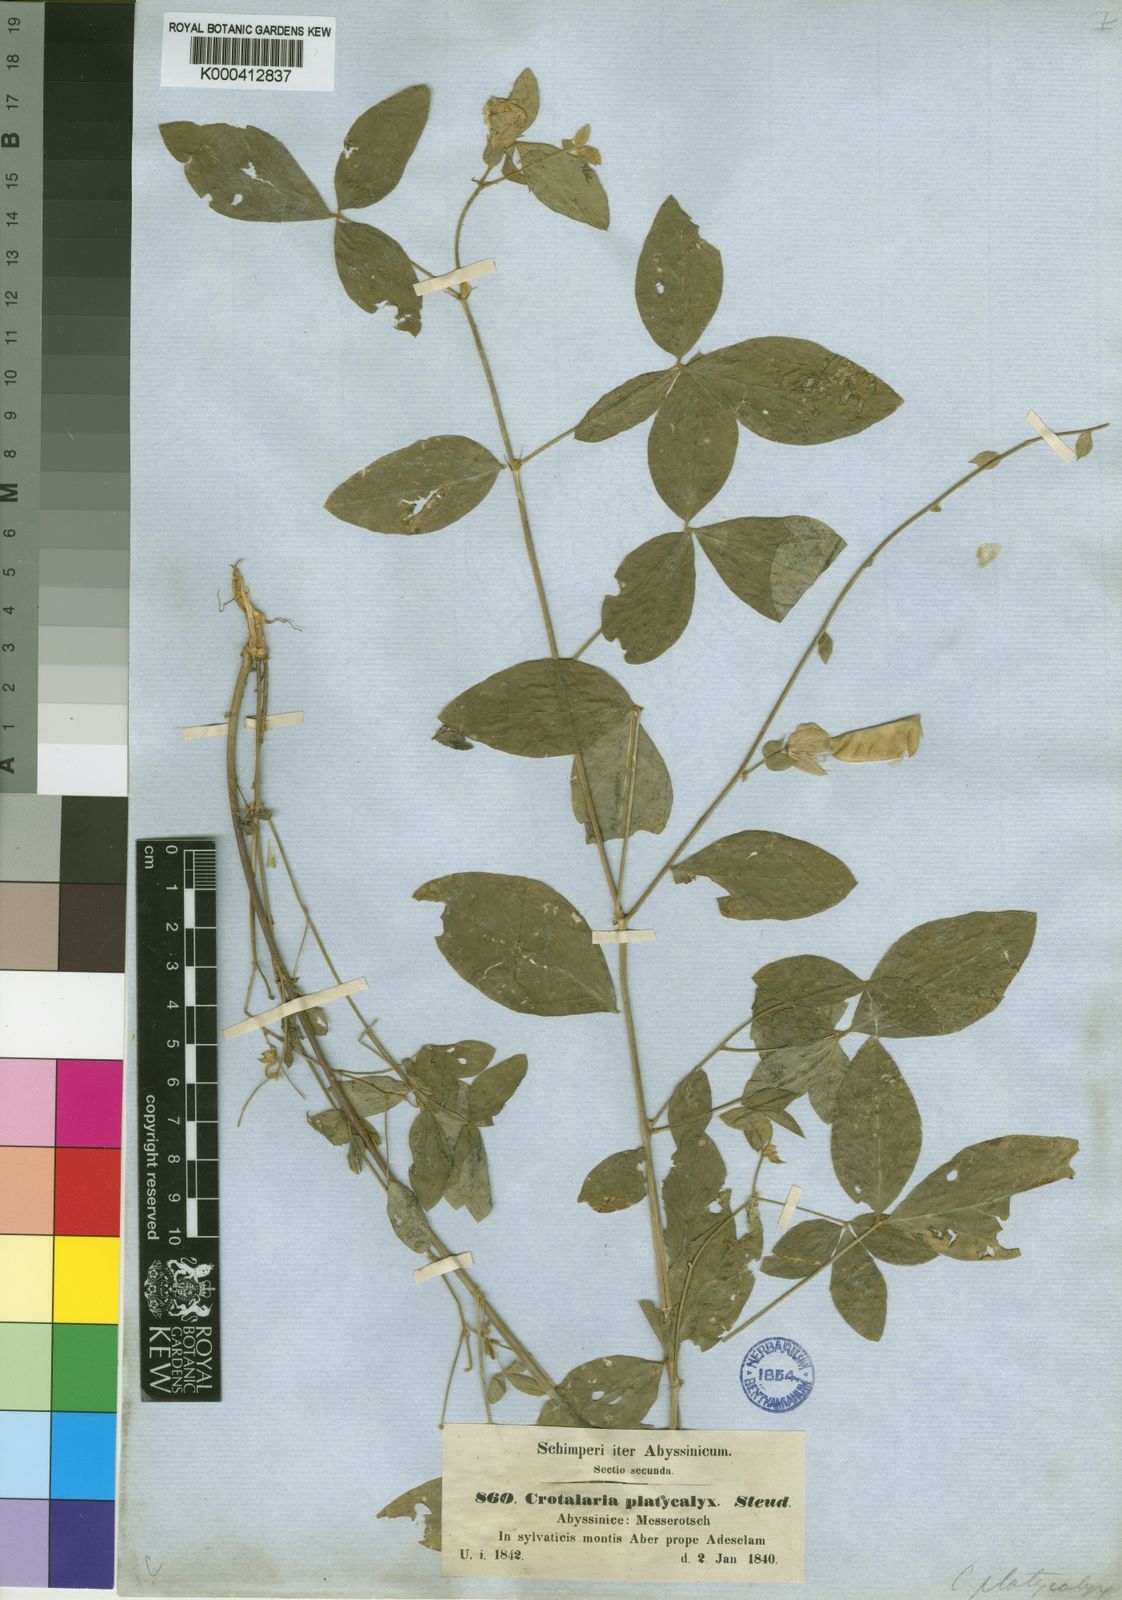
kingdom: Plantae
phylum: Tracheophyta
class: Magnoliopsida
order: Fabales
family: Fabaceae
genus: Crotalaria
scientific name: Crotalaria quartiniana
